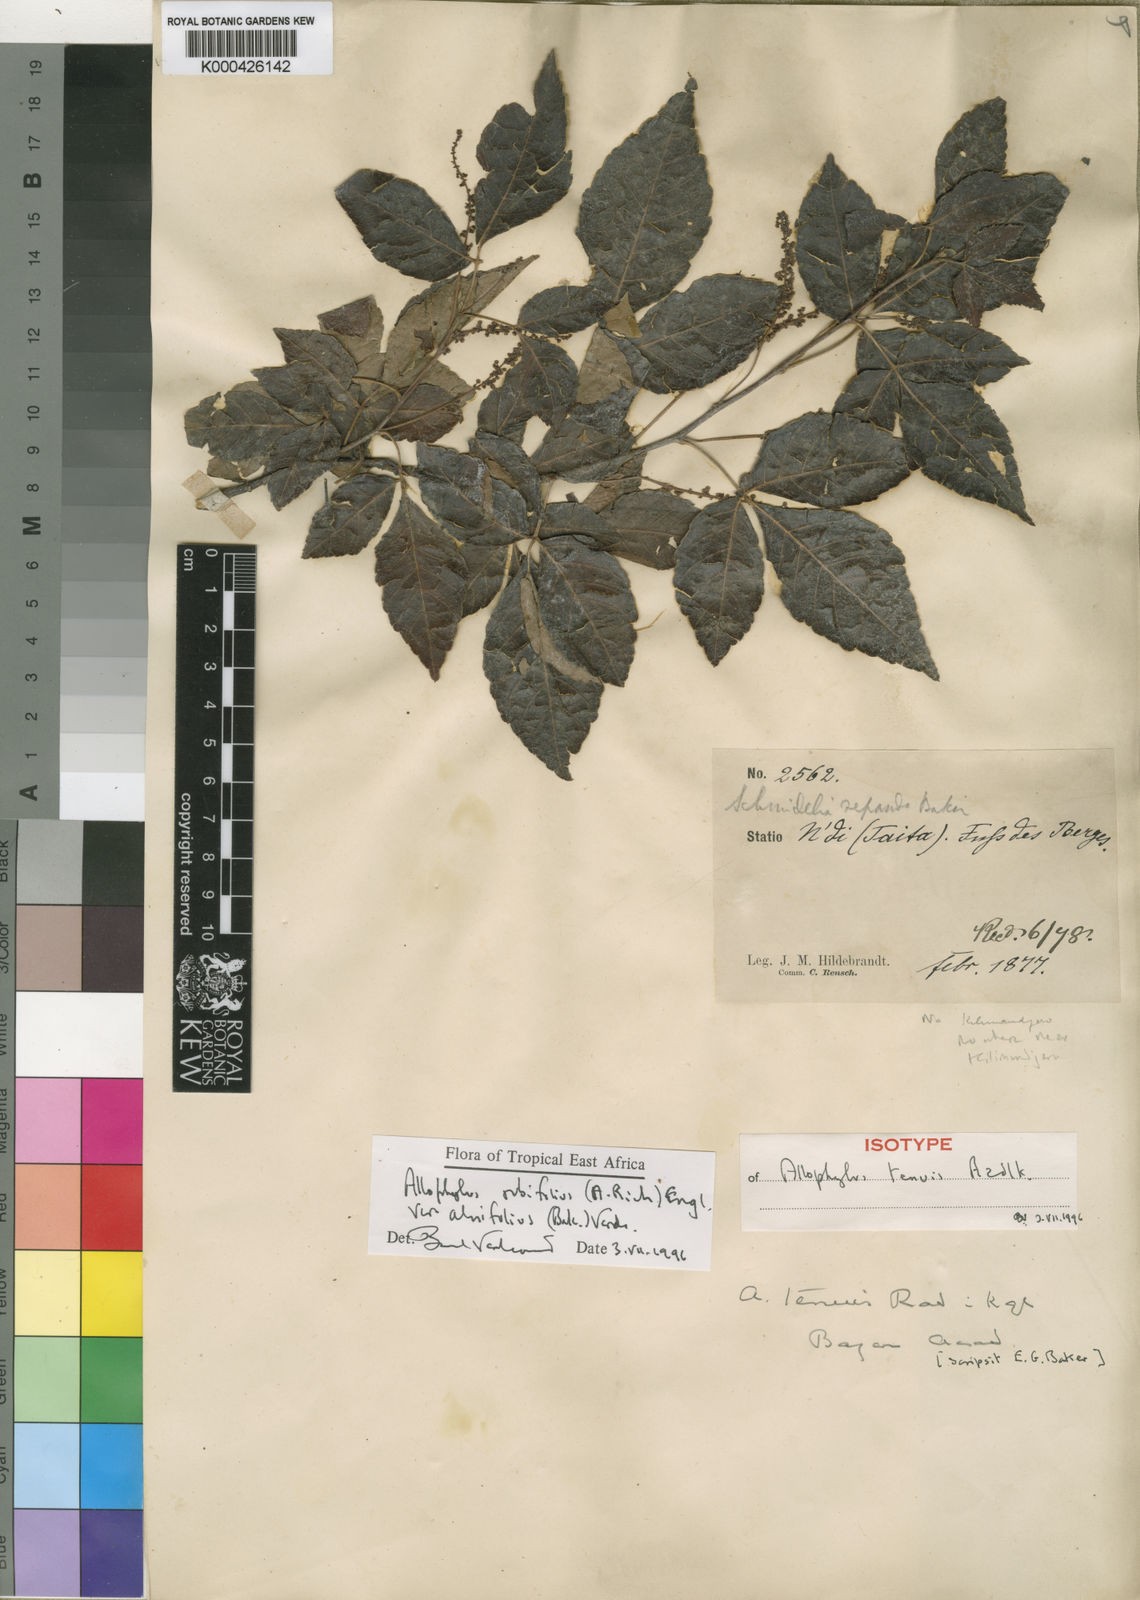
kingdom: Plantae
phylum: Tracheophyta
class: Magnoliopsida
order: Sapindales
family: Sapindaceae
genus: Allophylus
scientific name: Allophylus rubifolius
